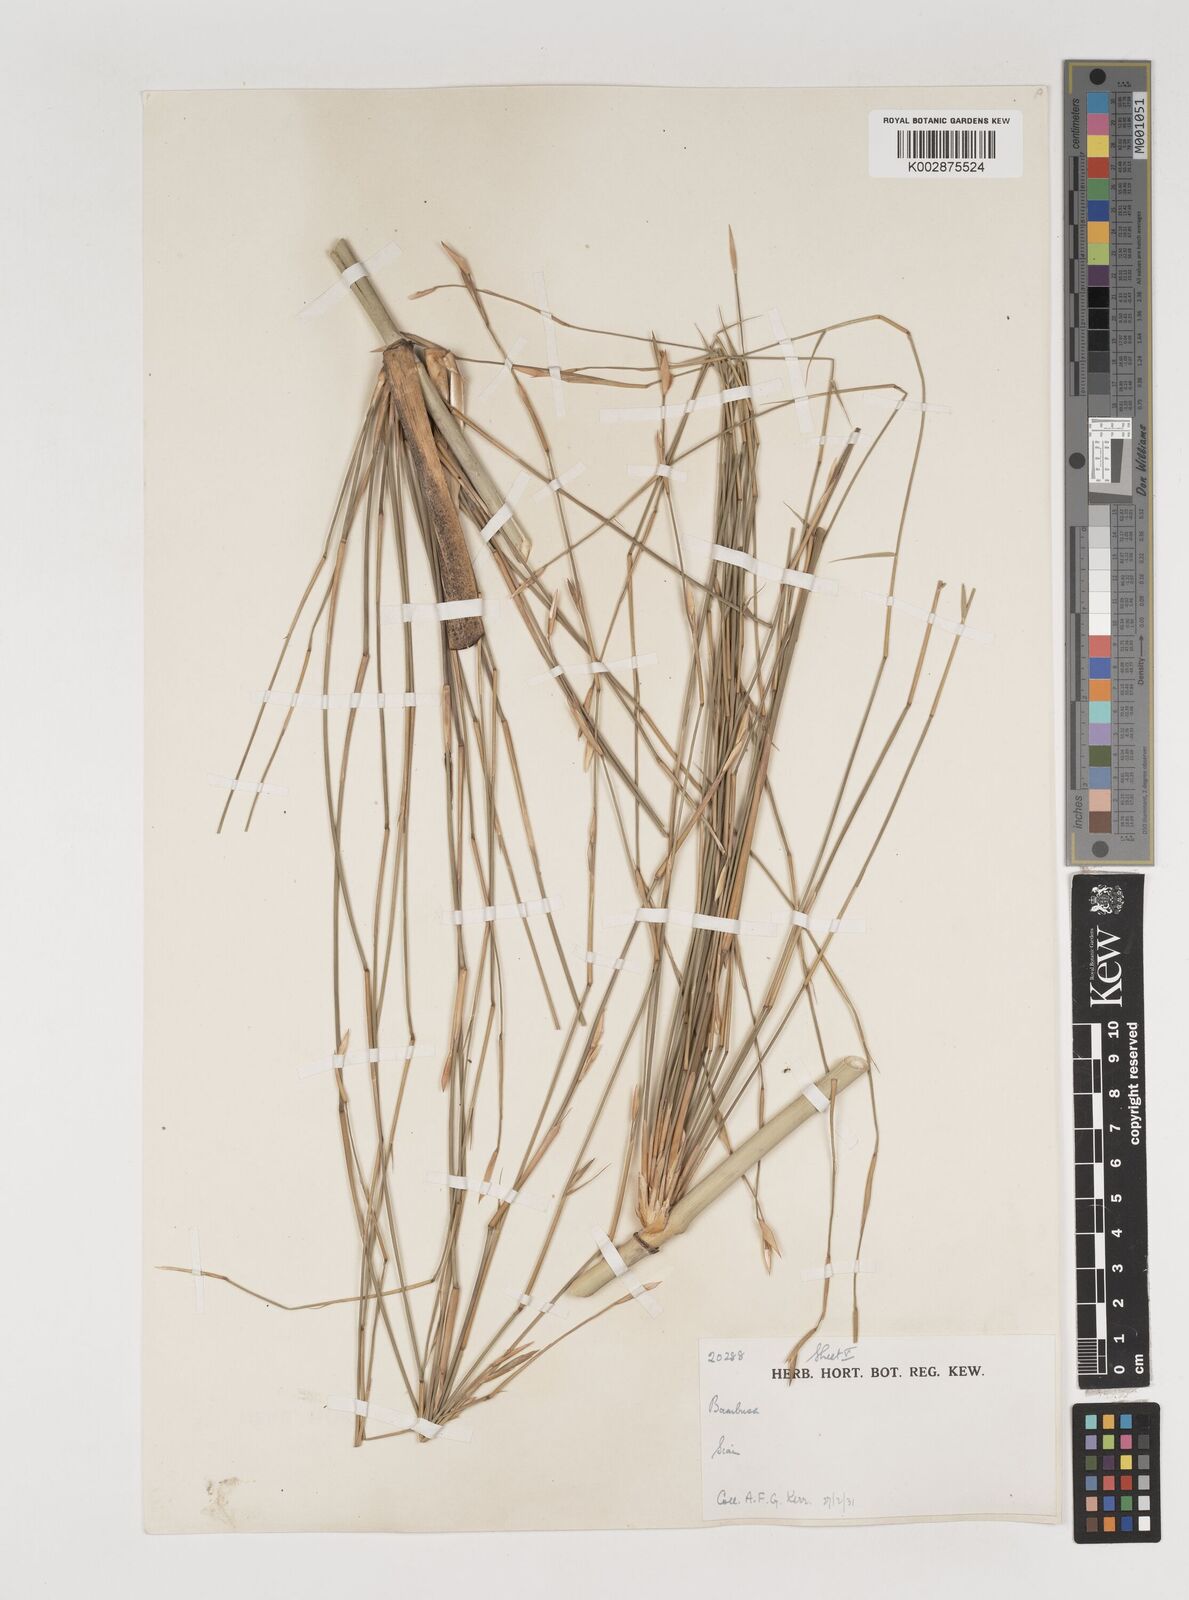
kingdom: Plantae
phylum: Tracheophyta
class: Liliopsida
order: Poales
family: Poaceae
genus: Vietnamosasa
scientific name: Vietnamosasa
